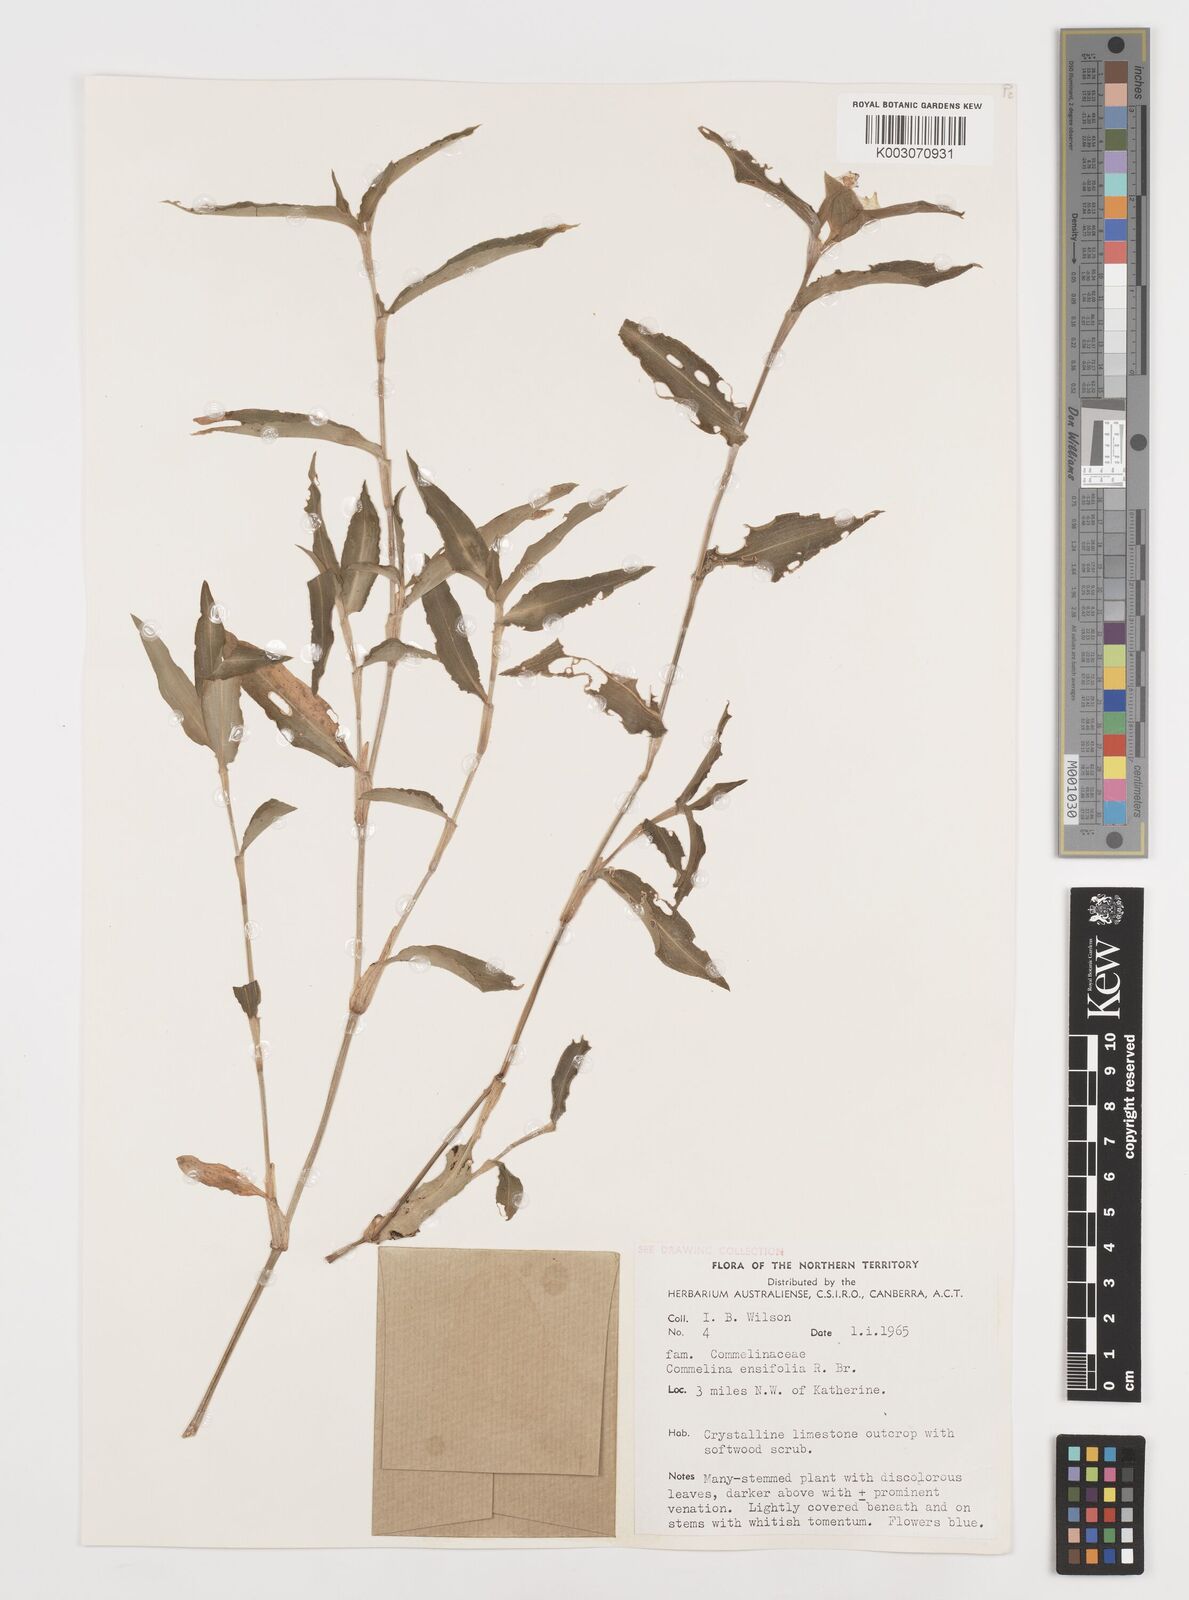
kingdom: Plantae
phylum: Tracheophyta
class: Liliopsida
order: Commelinales
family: Commelinaceae
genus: Commelina
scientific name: Commelina ensifolia
